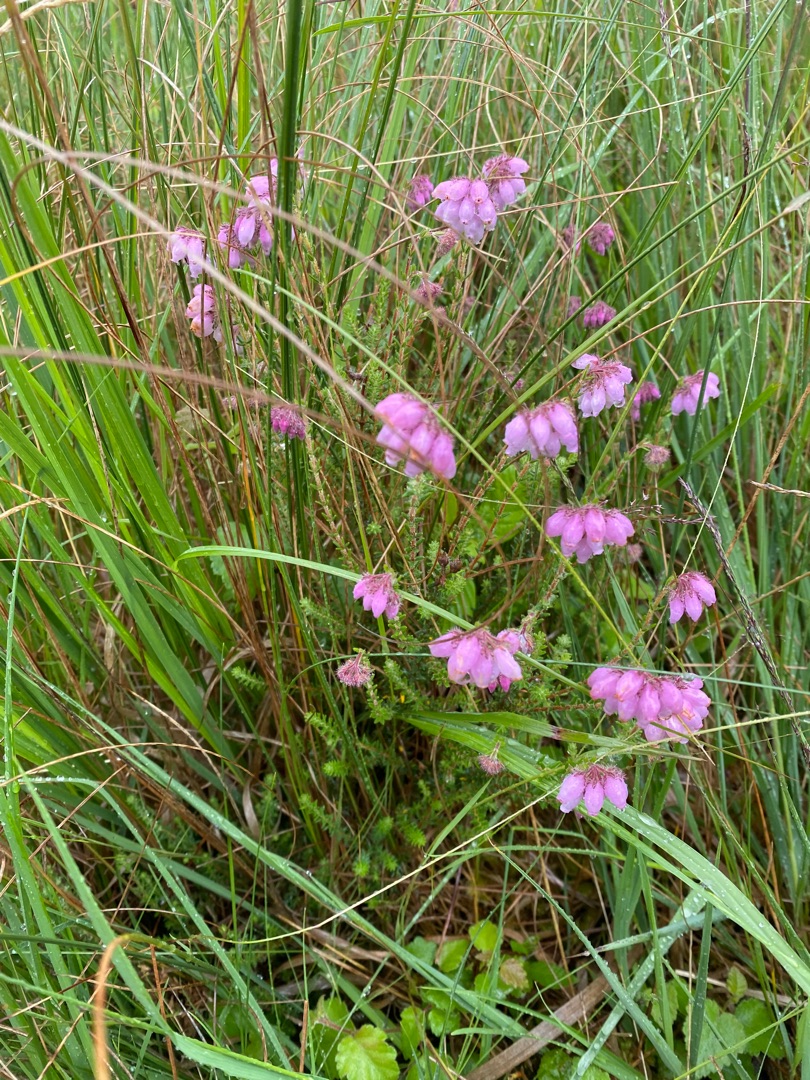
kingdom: Plantae
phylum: Tracheophyta
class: Magnoliopsida
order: Ericales
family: Ericaceae
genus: Erica
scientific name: Erica tetralix
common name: Klokkelyng
